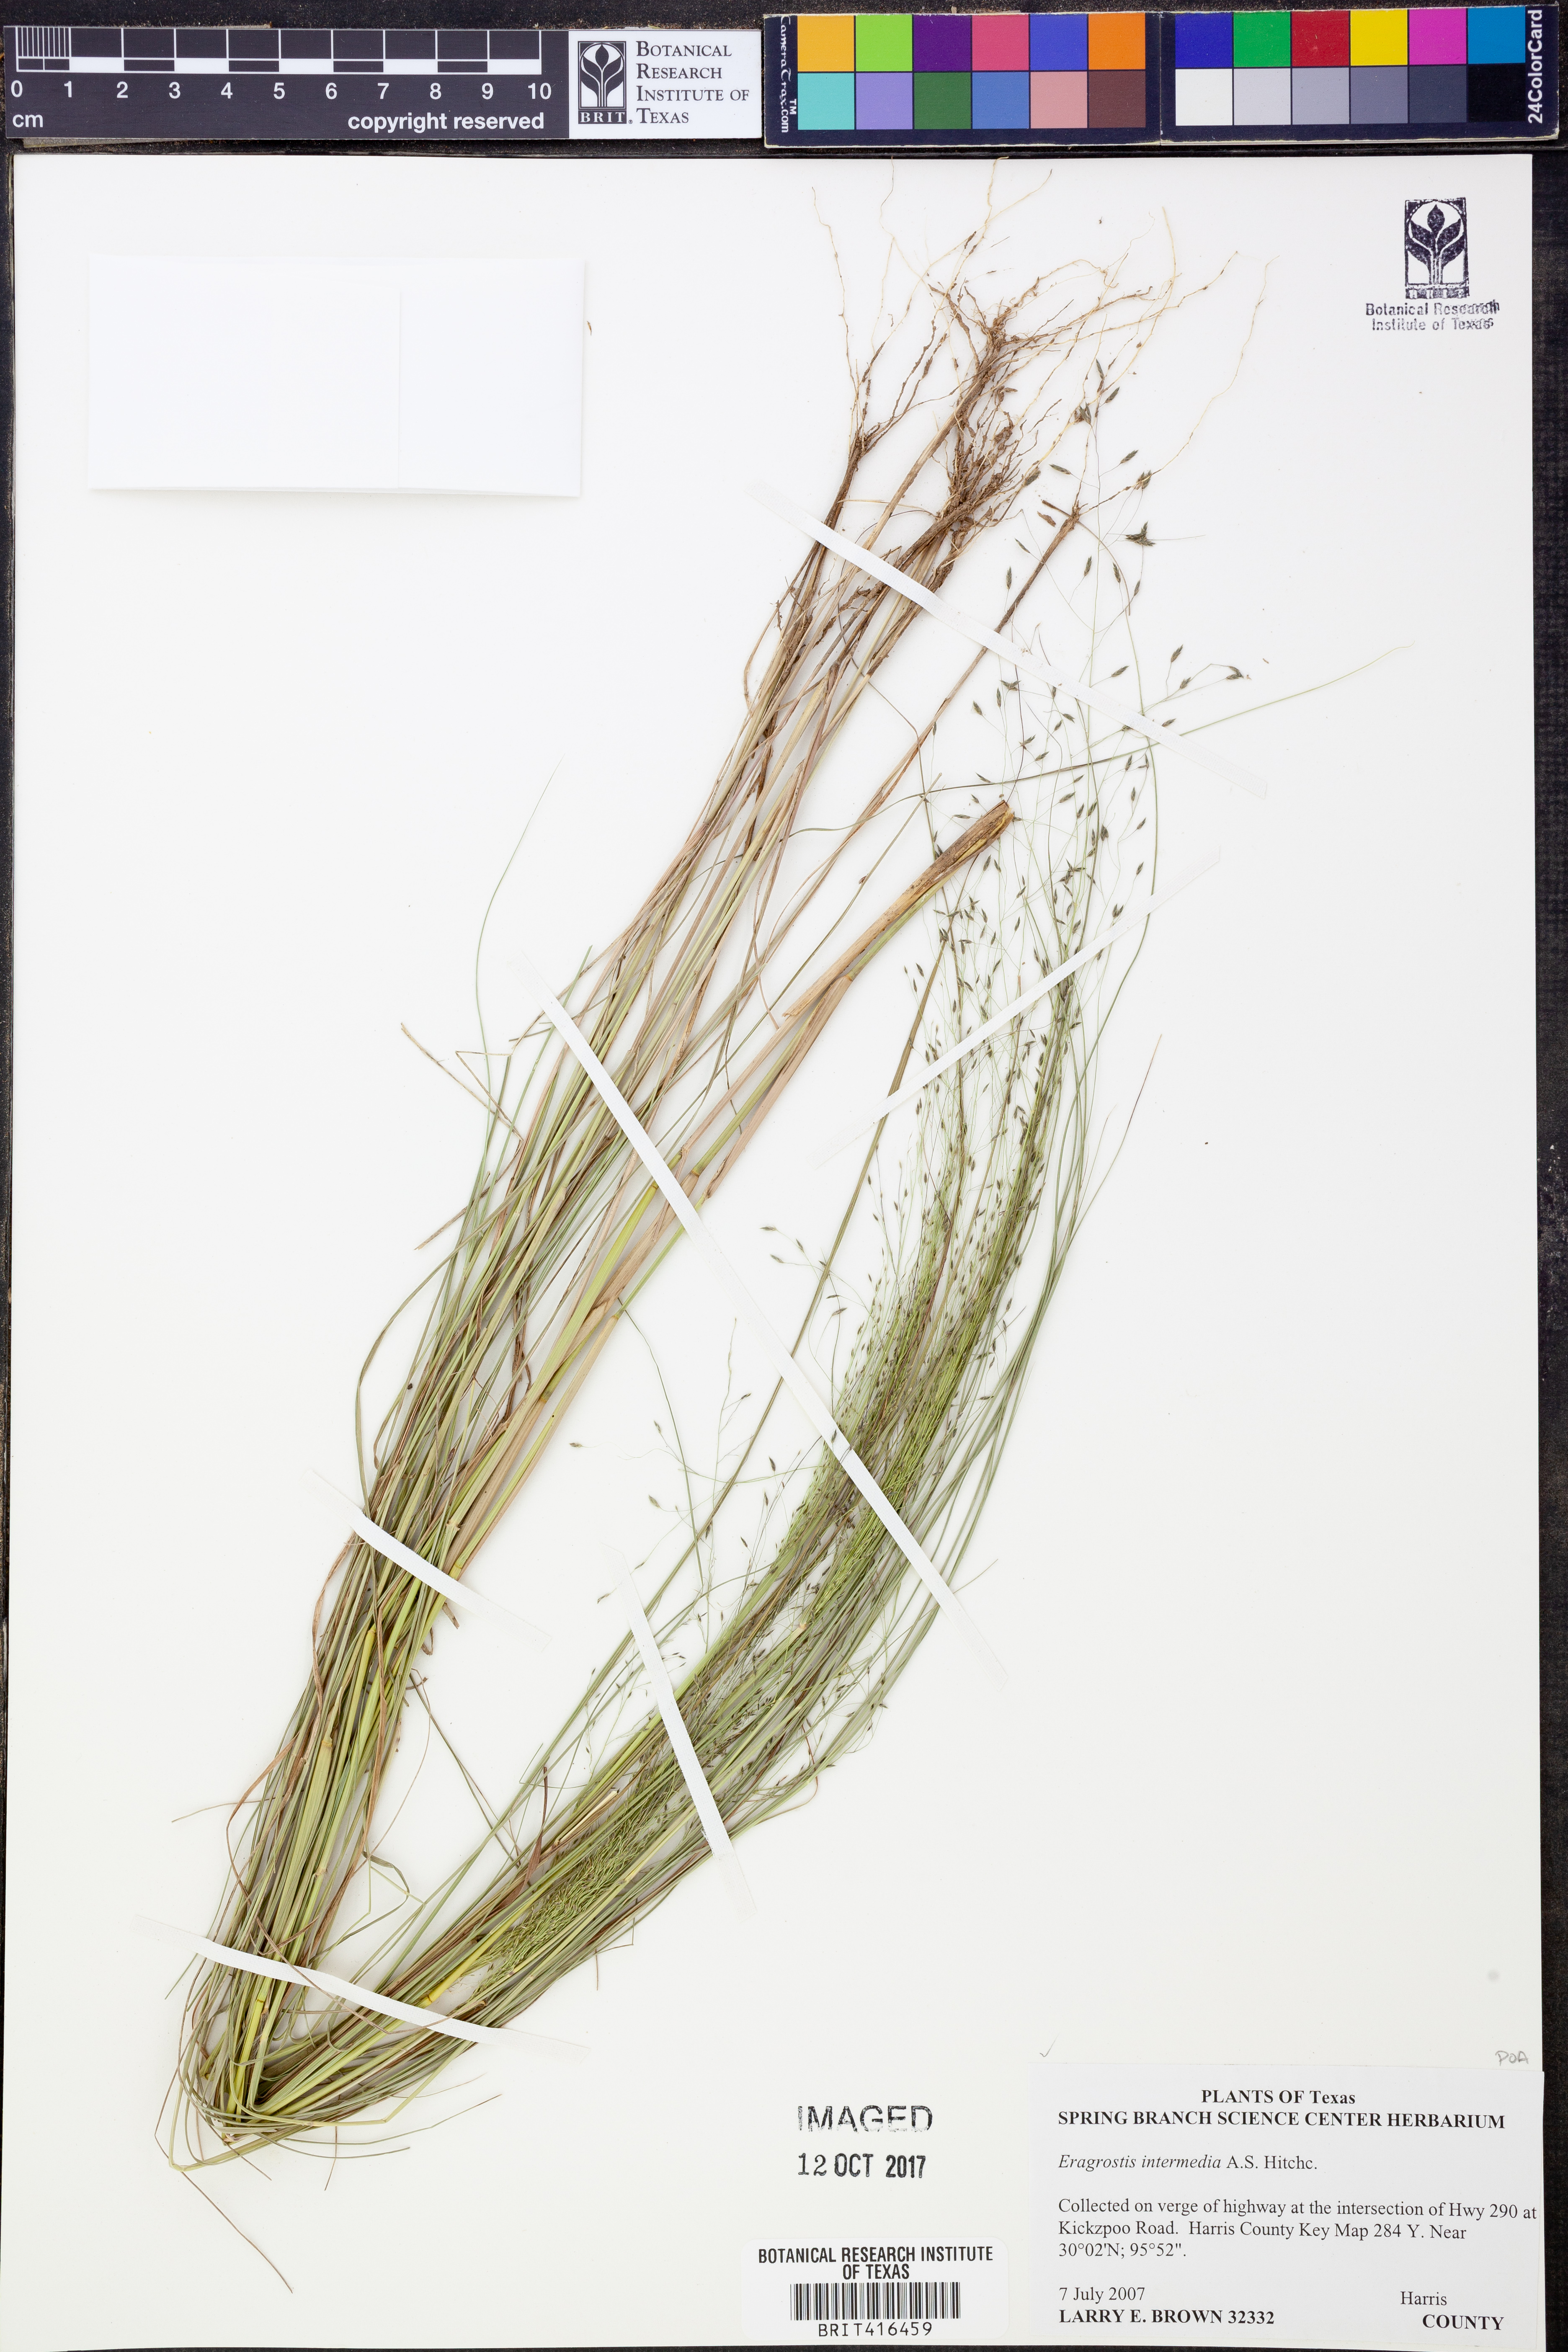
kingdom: Plantae
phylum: Tracheophyta
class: Liliopsida
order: Poales
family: Poaceae
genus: Eragrostis
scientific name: Eragrostis intermedia
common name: Plains love grass
